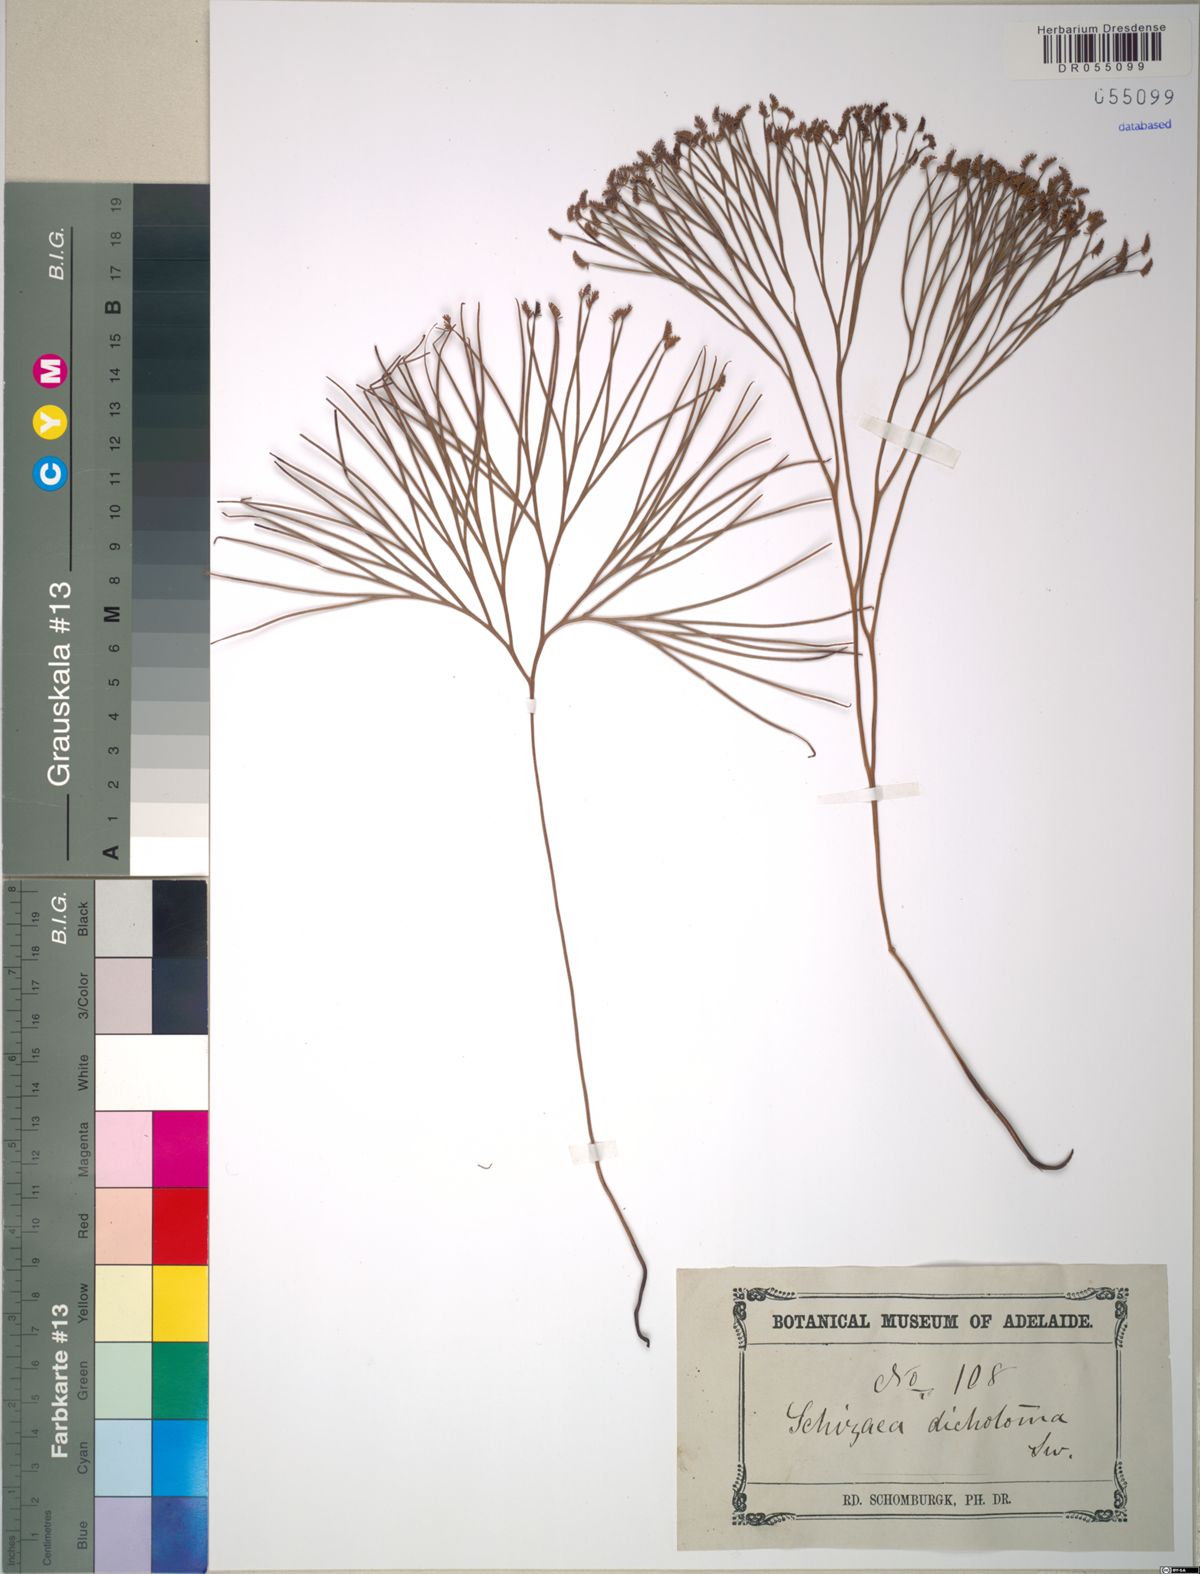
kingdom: Plantae
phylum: Tracheophyta
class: Polypodiopsida
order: Schizaeales
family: Schizaeaceae
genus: Schizaea
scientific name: Schizaea dichotoma
